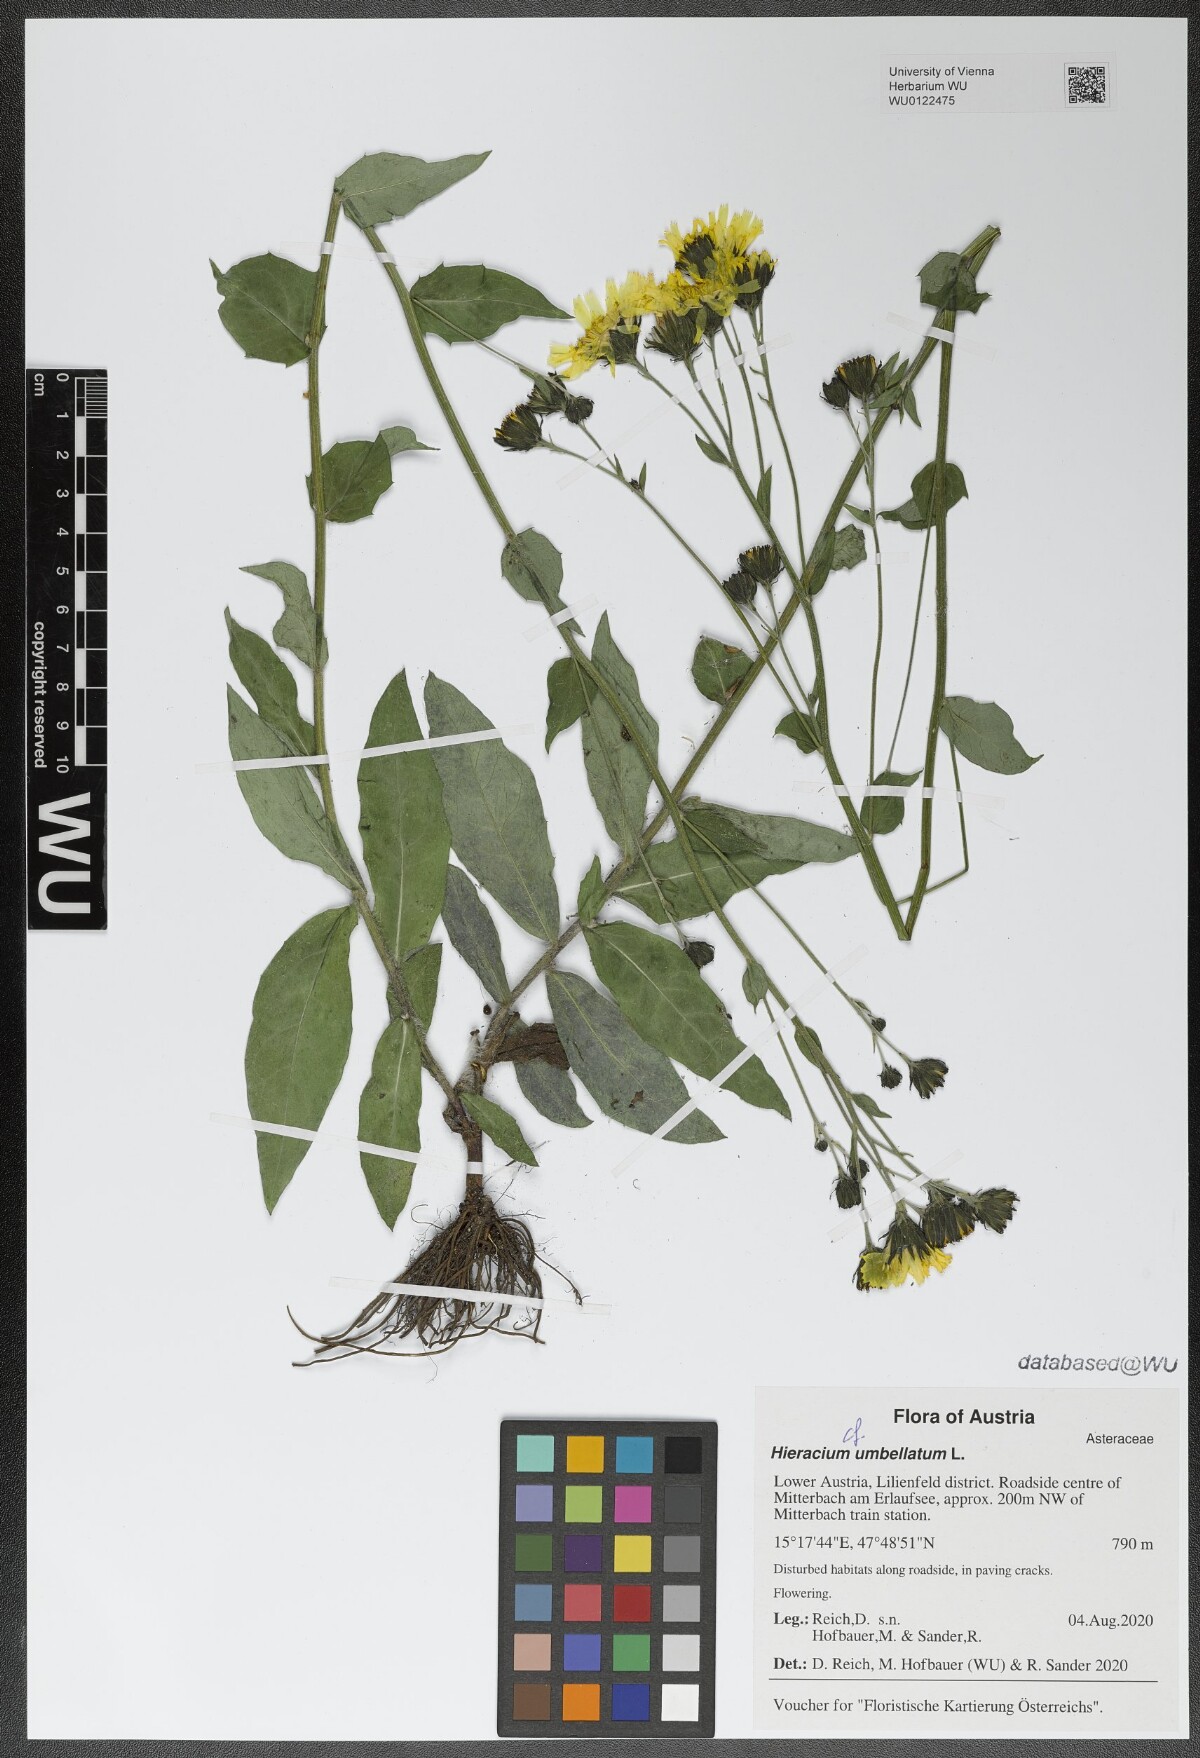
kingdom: Plantae
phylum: Tracheophyta
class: Magnoliopsida
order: Asterales
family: Asteraceae
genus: Hieracium
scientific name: Hieracium umbellatum
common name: Northern hawkweed
